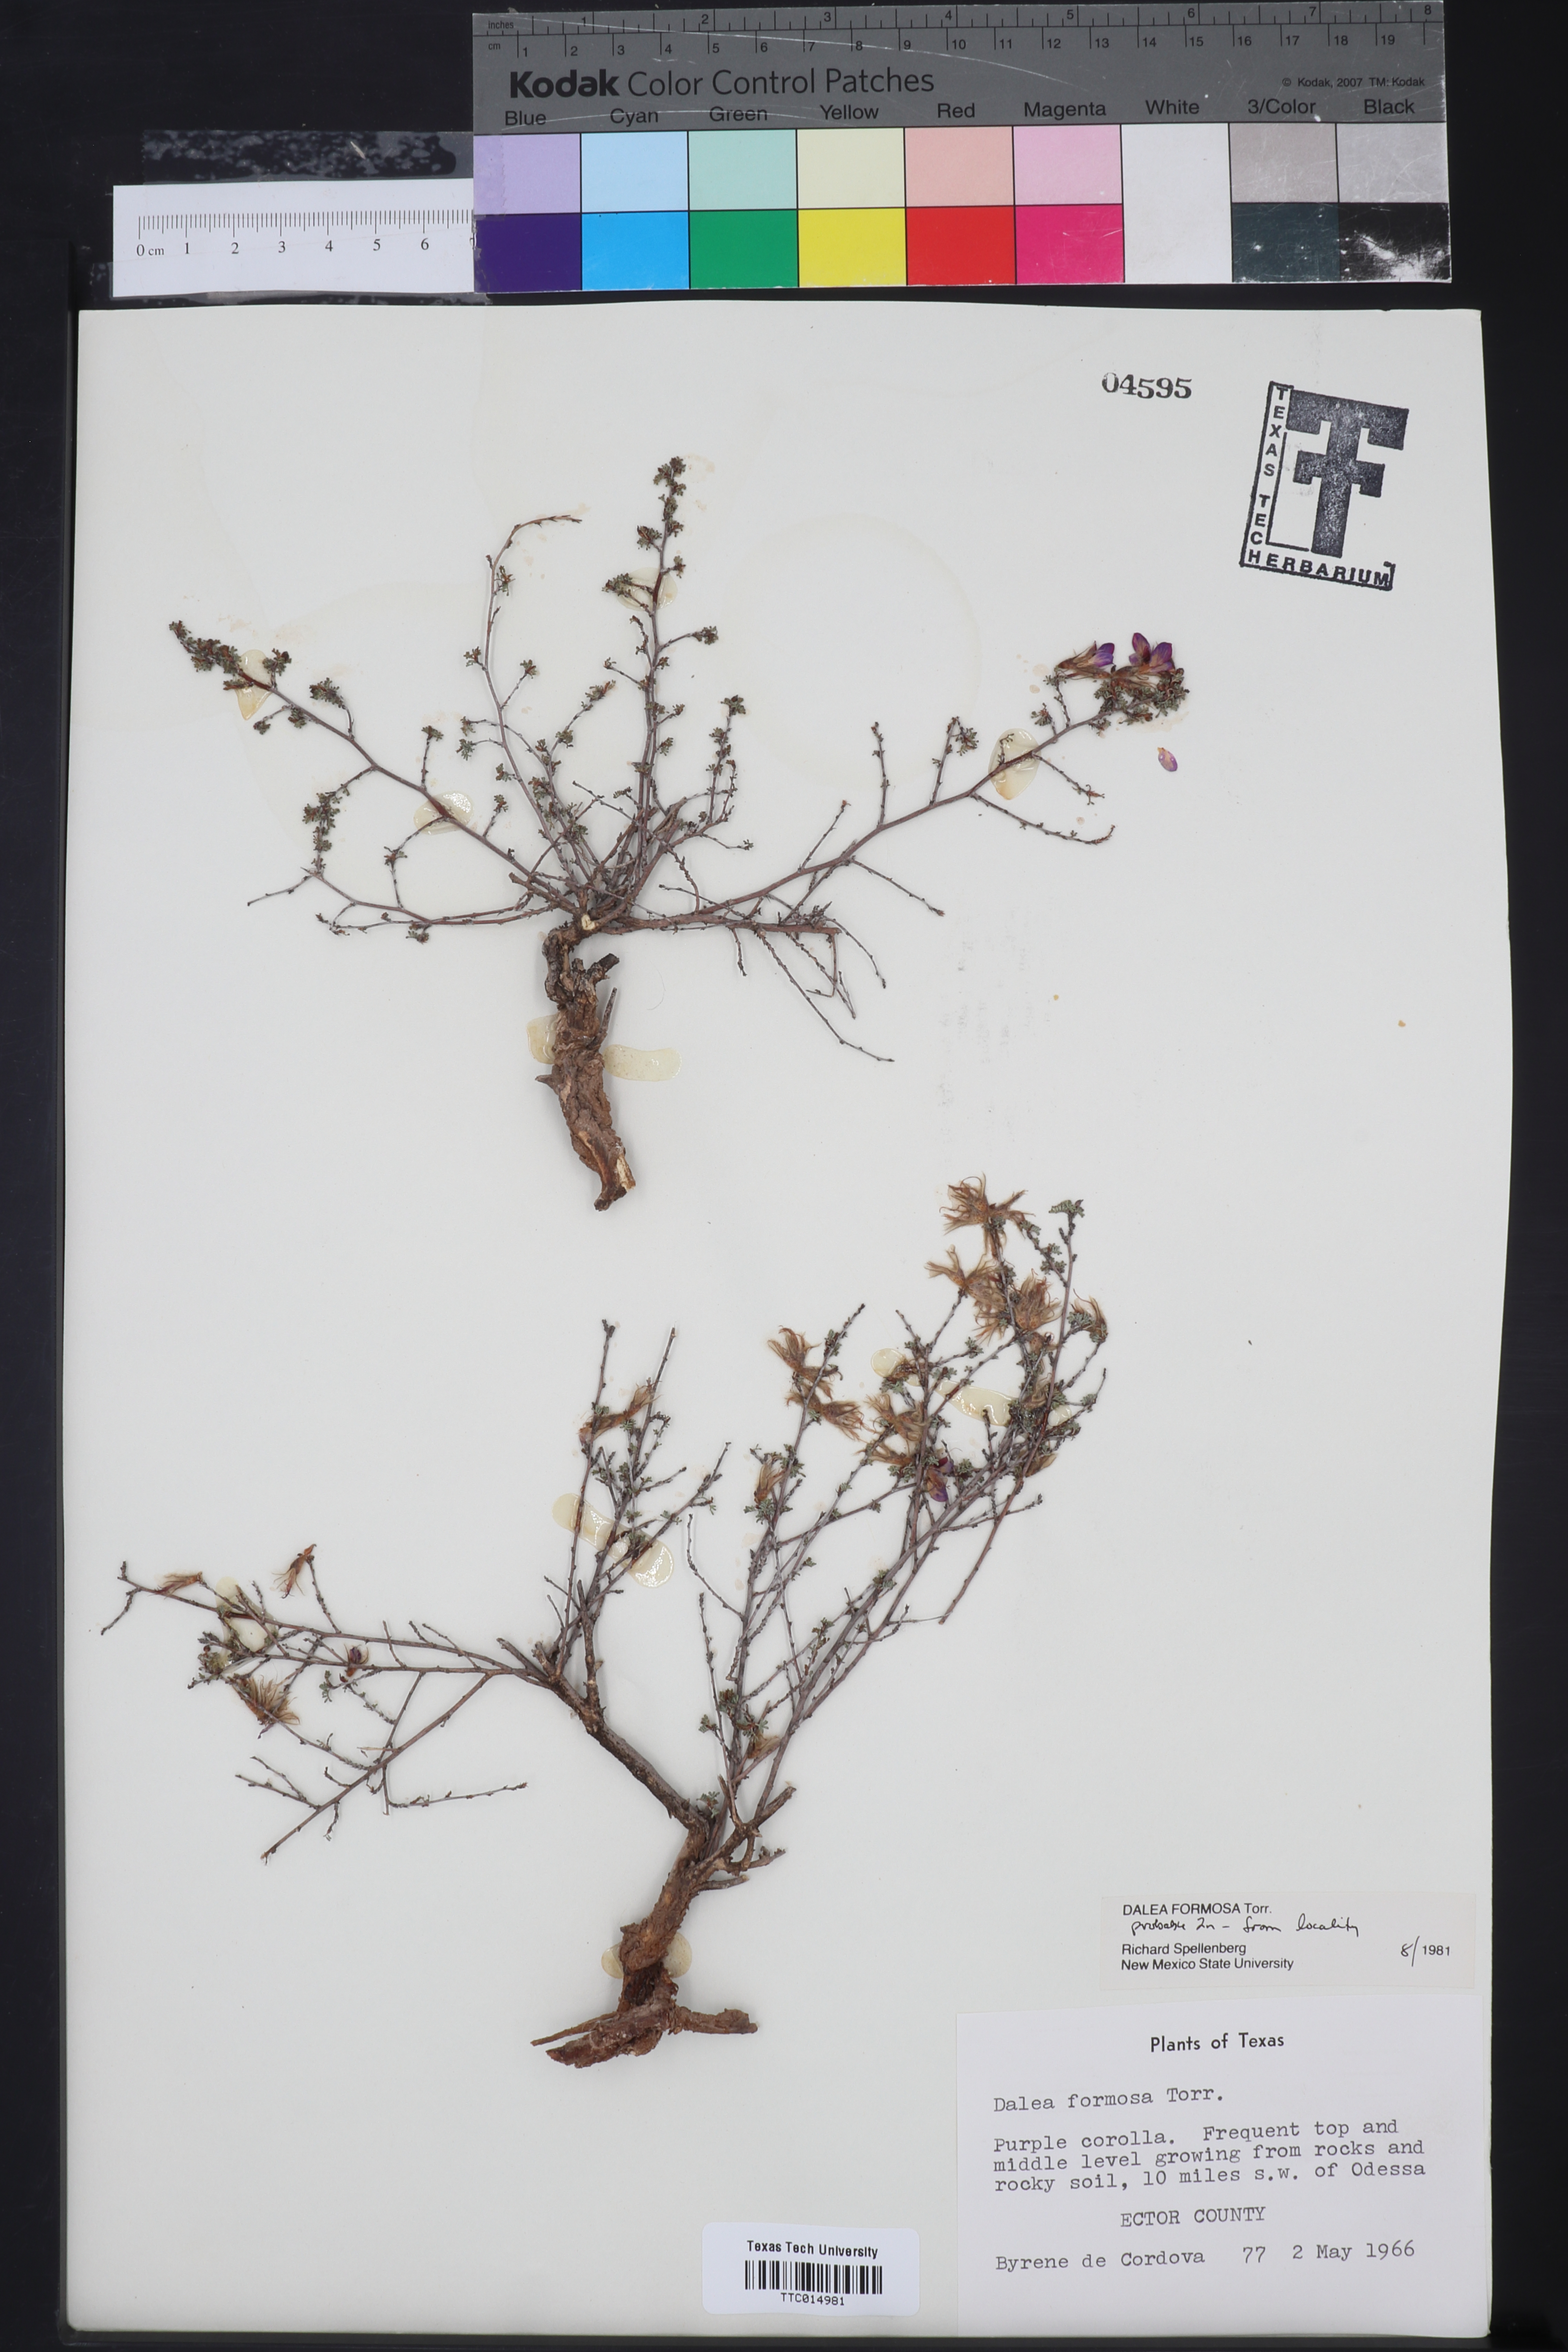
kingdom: Plantae
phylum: Tracheophyta
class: Magnoliopsida
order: Fabales
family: Fabaceae
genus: Dalea
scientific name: Dalea formosa
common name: Feather-plume dalea
